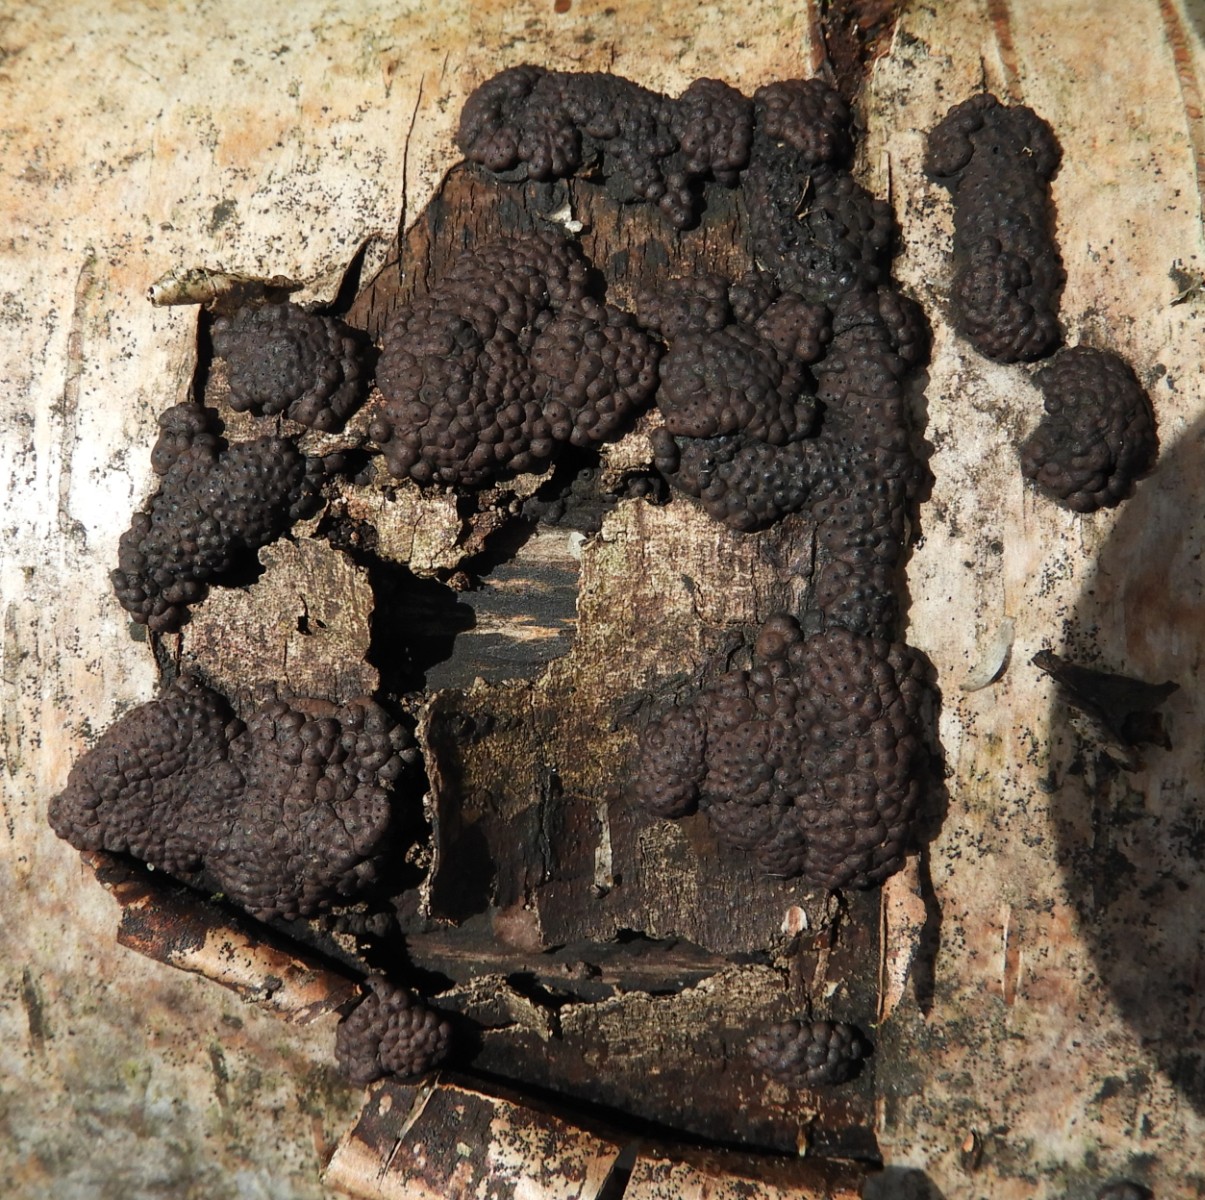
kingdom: Fungi
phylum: Ascomycota
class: Sordariomycetes
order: Xylariales
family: Hypoxylaceae
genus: Jackrogersella
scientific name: Jackrogersella multiformis
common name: foranderlig kulbær
